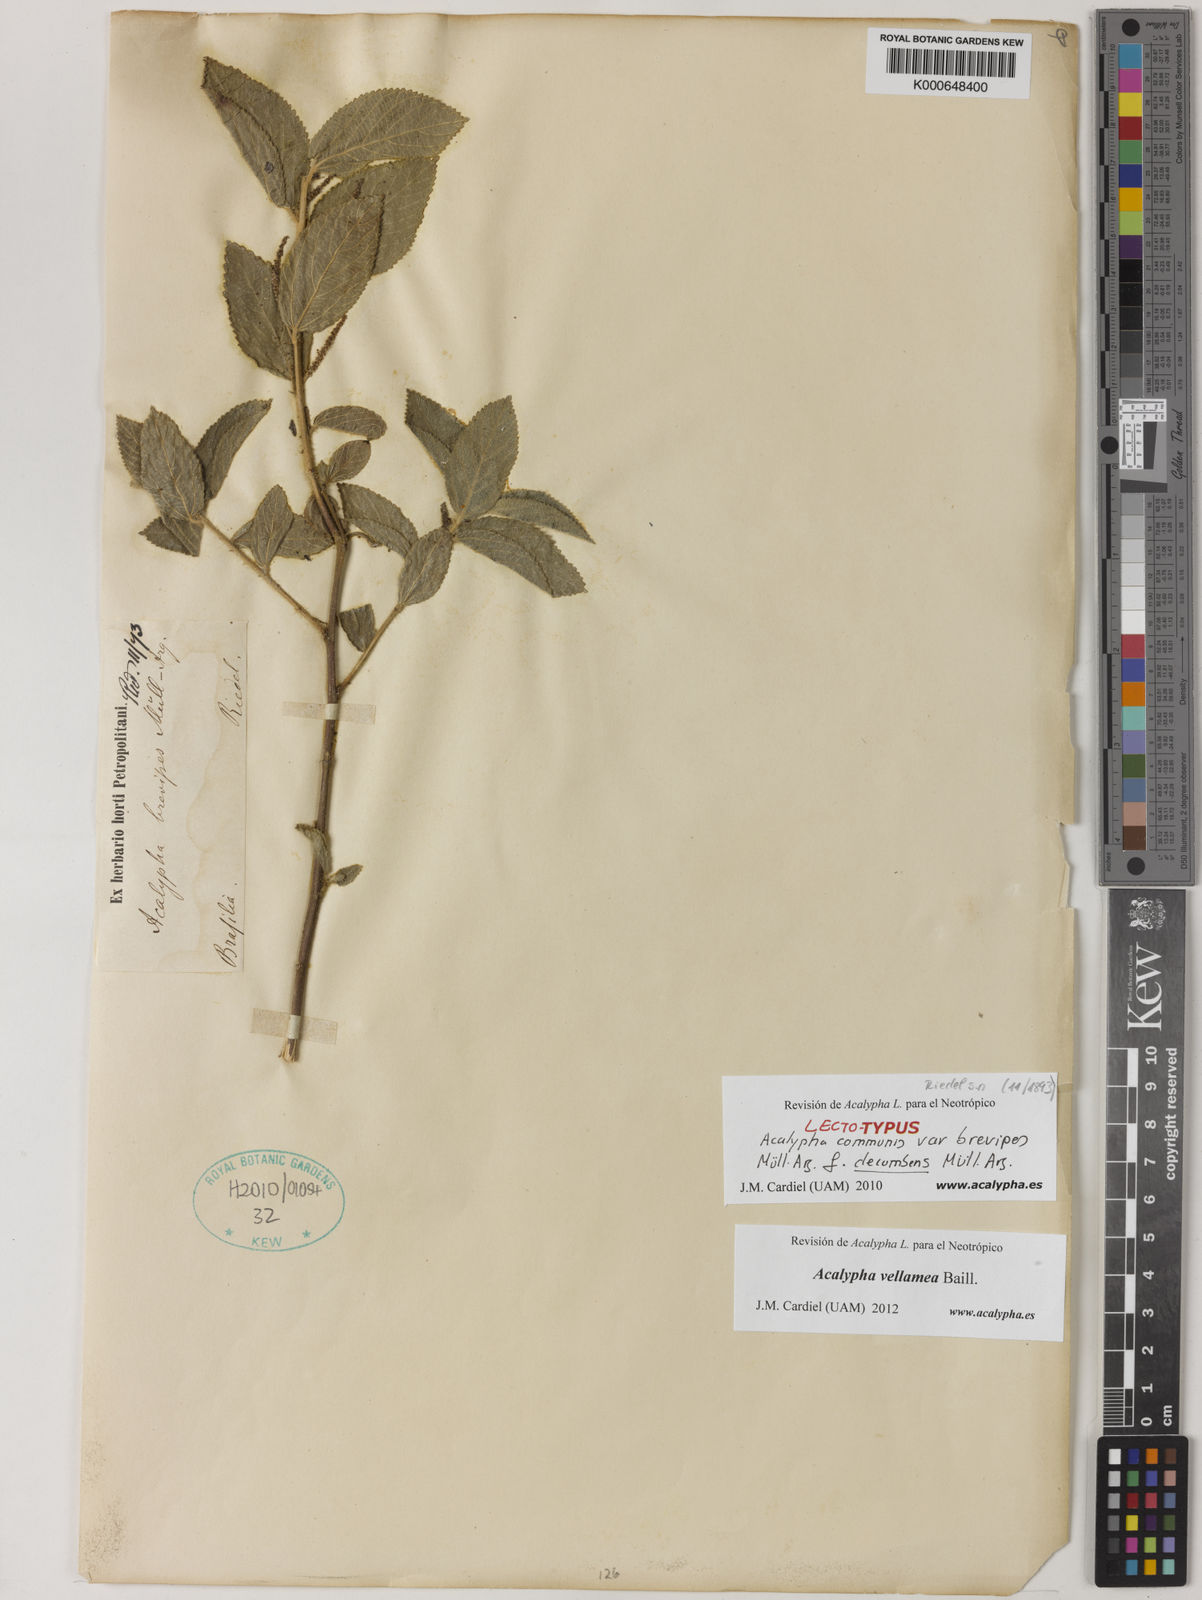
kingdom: Plantae
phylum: Tracheophyta
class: Magnoliopsida
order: Malpighiales
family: Euphorbiaceae
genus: Acalypha
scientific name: Acalypha vellamea
